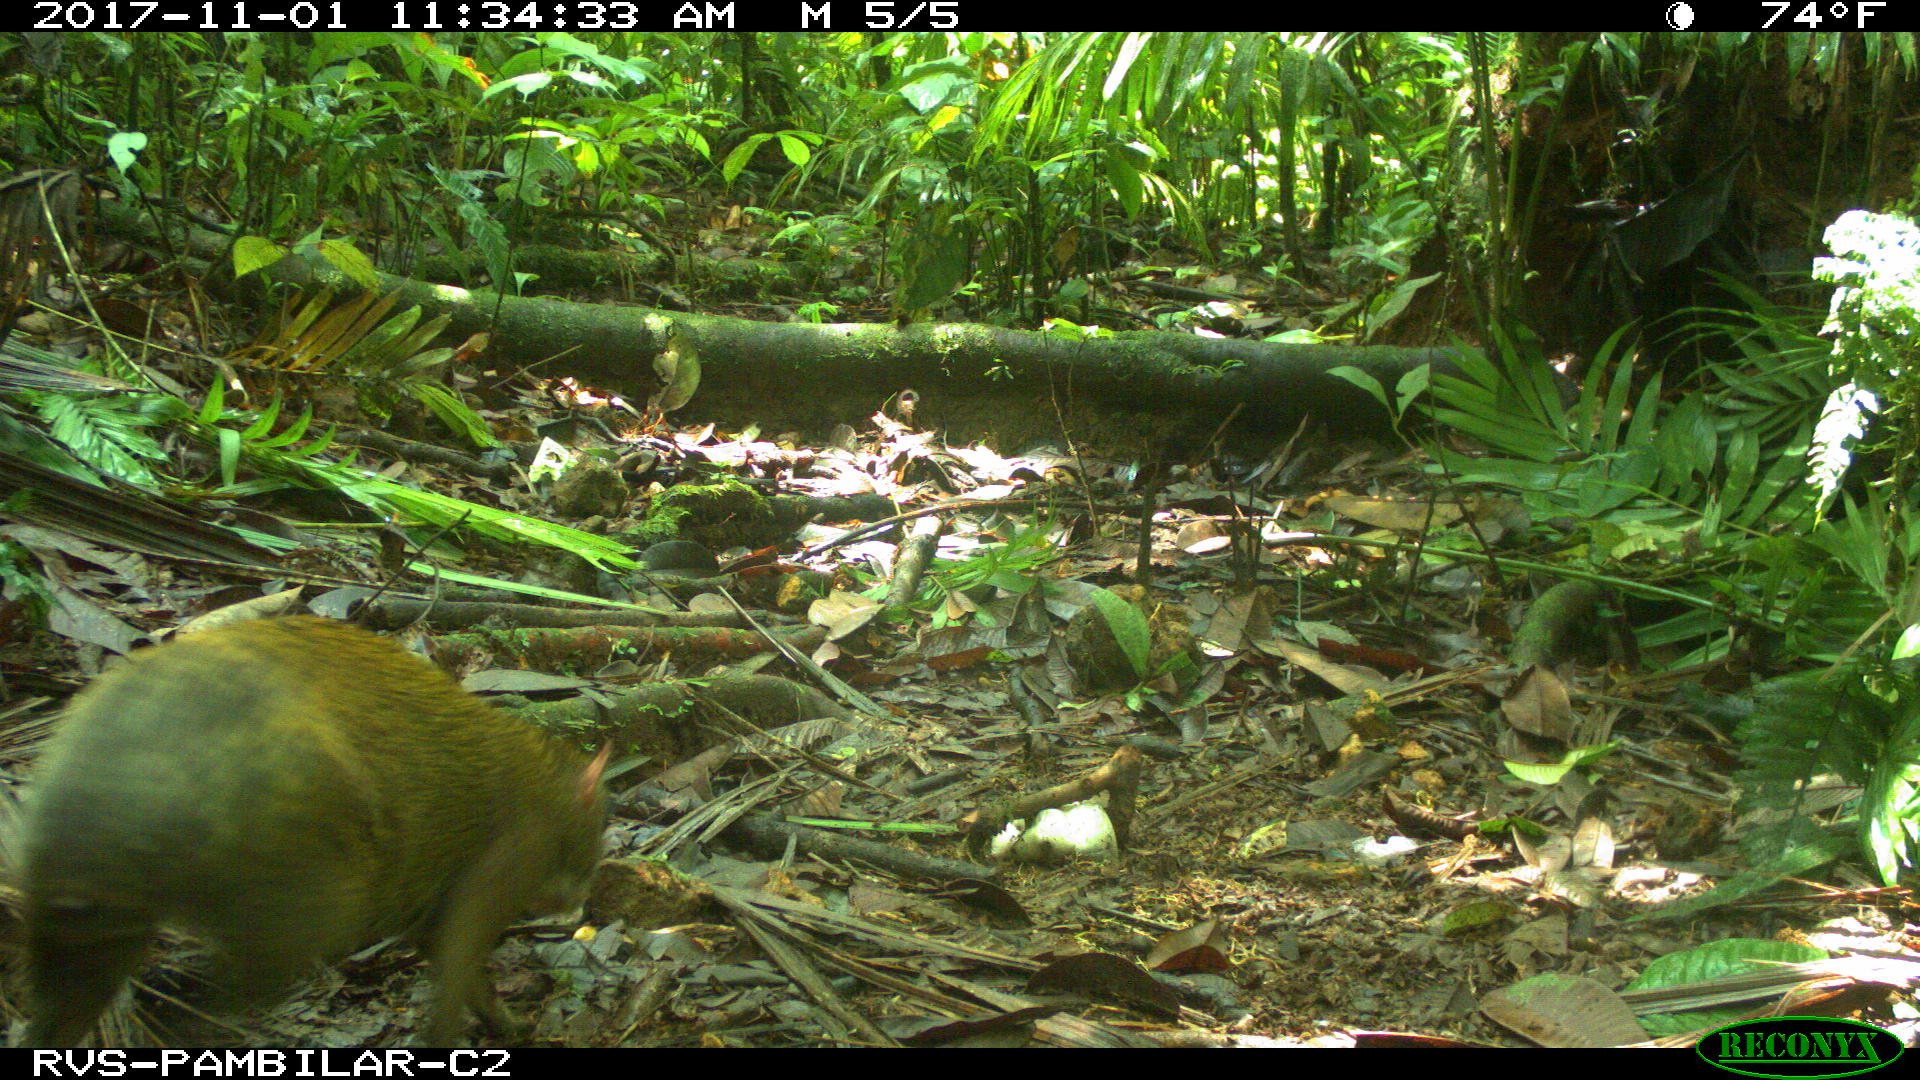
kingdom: Animalia
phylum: Chordata
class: Mammalia
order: Rodentia
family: Dasyproctidae
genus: Dasyprocta
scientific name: Dasyprocta punctata
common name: Central american agouti
